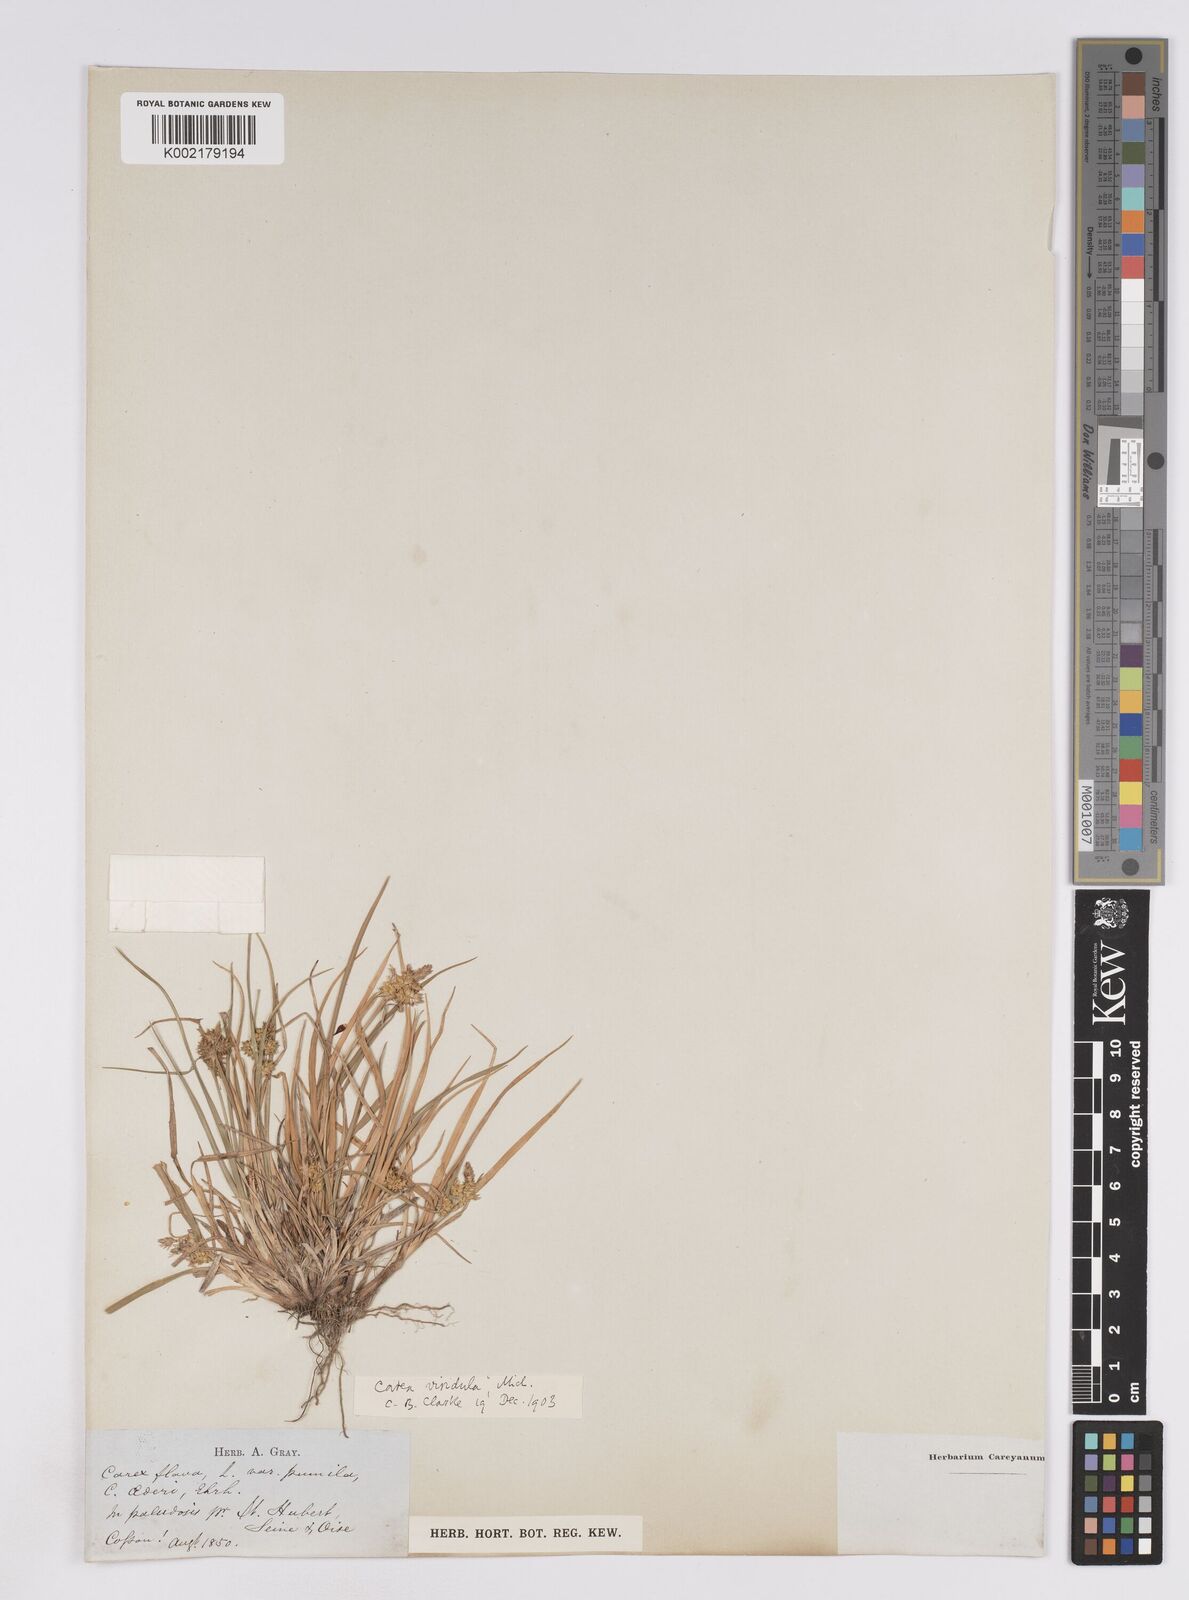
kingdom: Plantae
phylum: Tracheophyta
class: Liliopsida
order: Poales
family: Cyperaceae
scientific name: Cyperaceae
